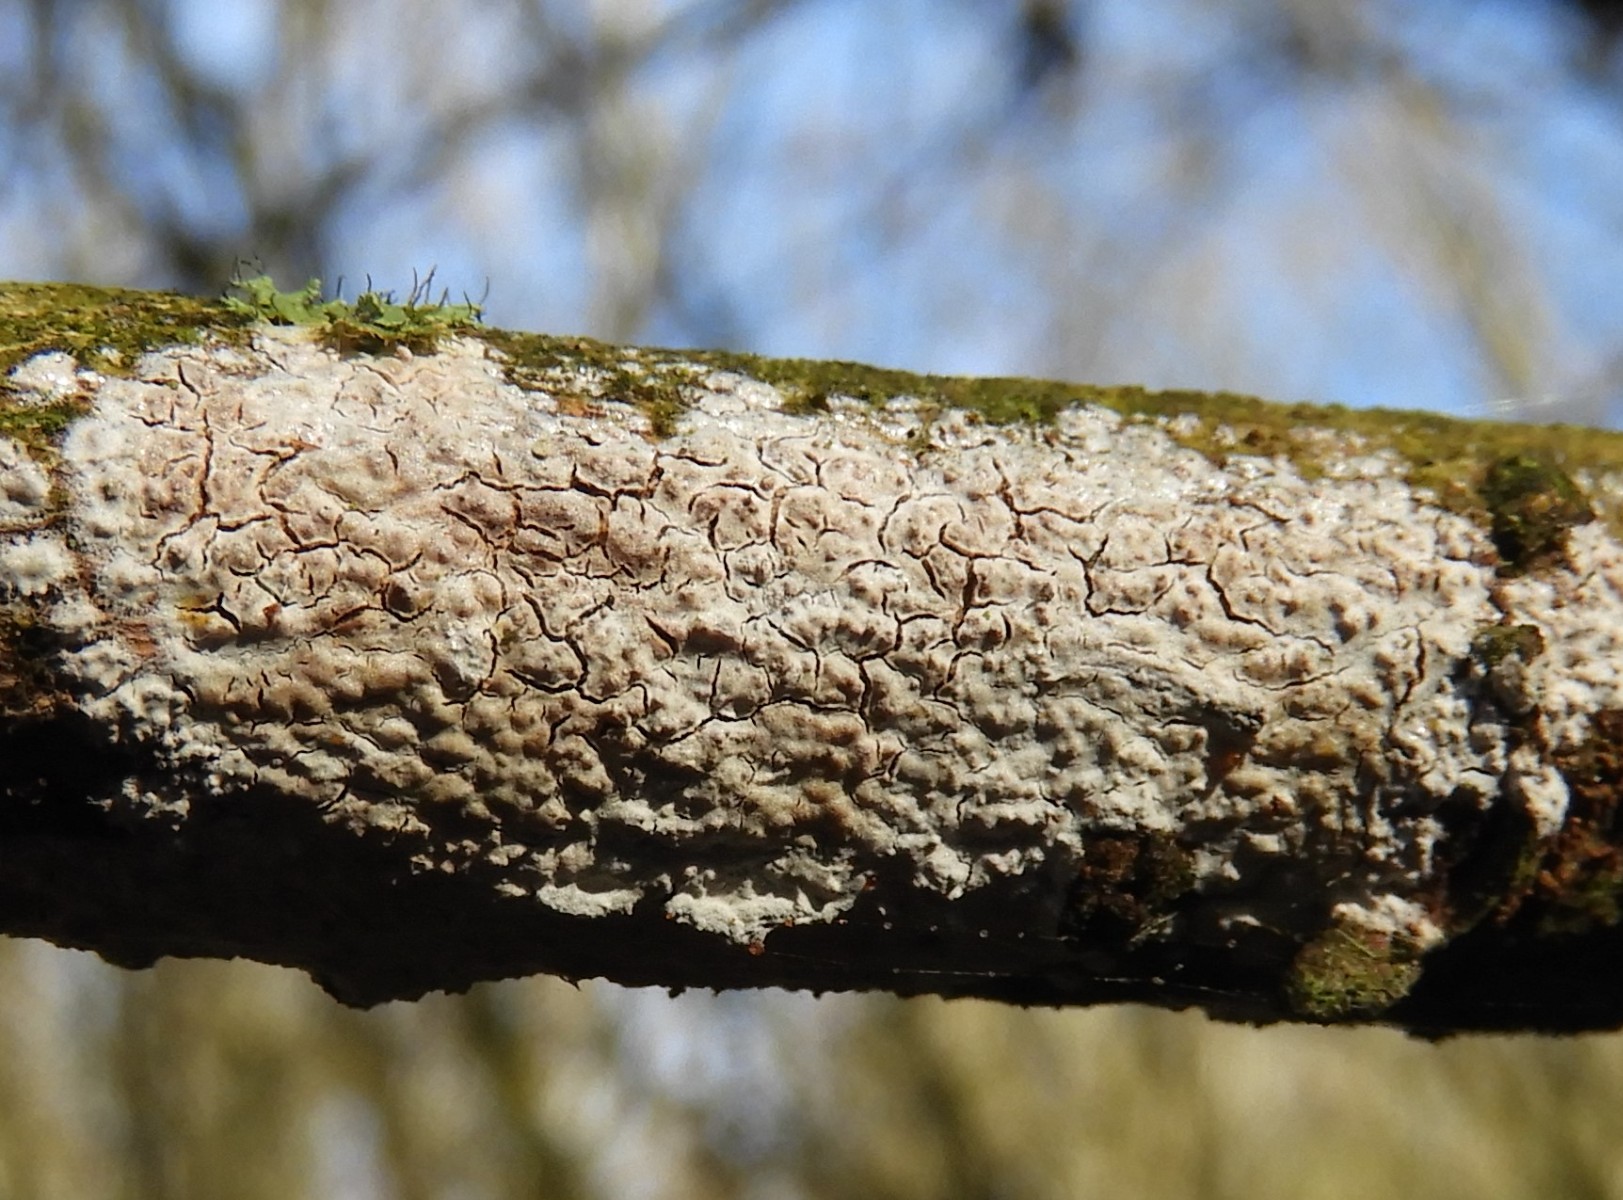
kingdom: Fungi
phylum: Basidiomycota
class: Agaricomycetes
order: Agaricales
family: Physalacriaceae
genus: Cylindrobasidium
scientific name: Cylindrobasidium evolvens
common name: sprækkehinde
